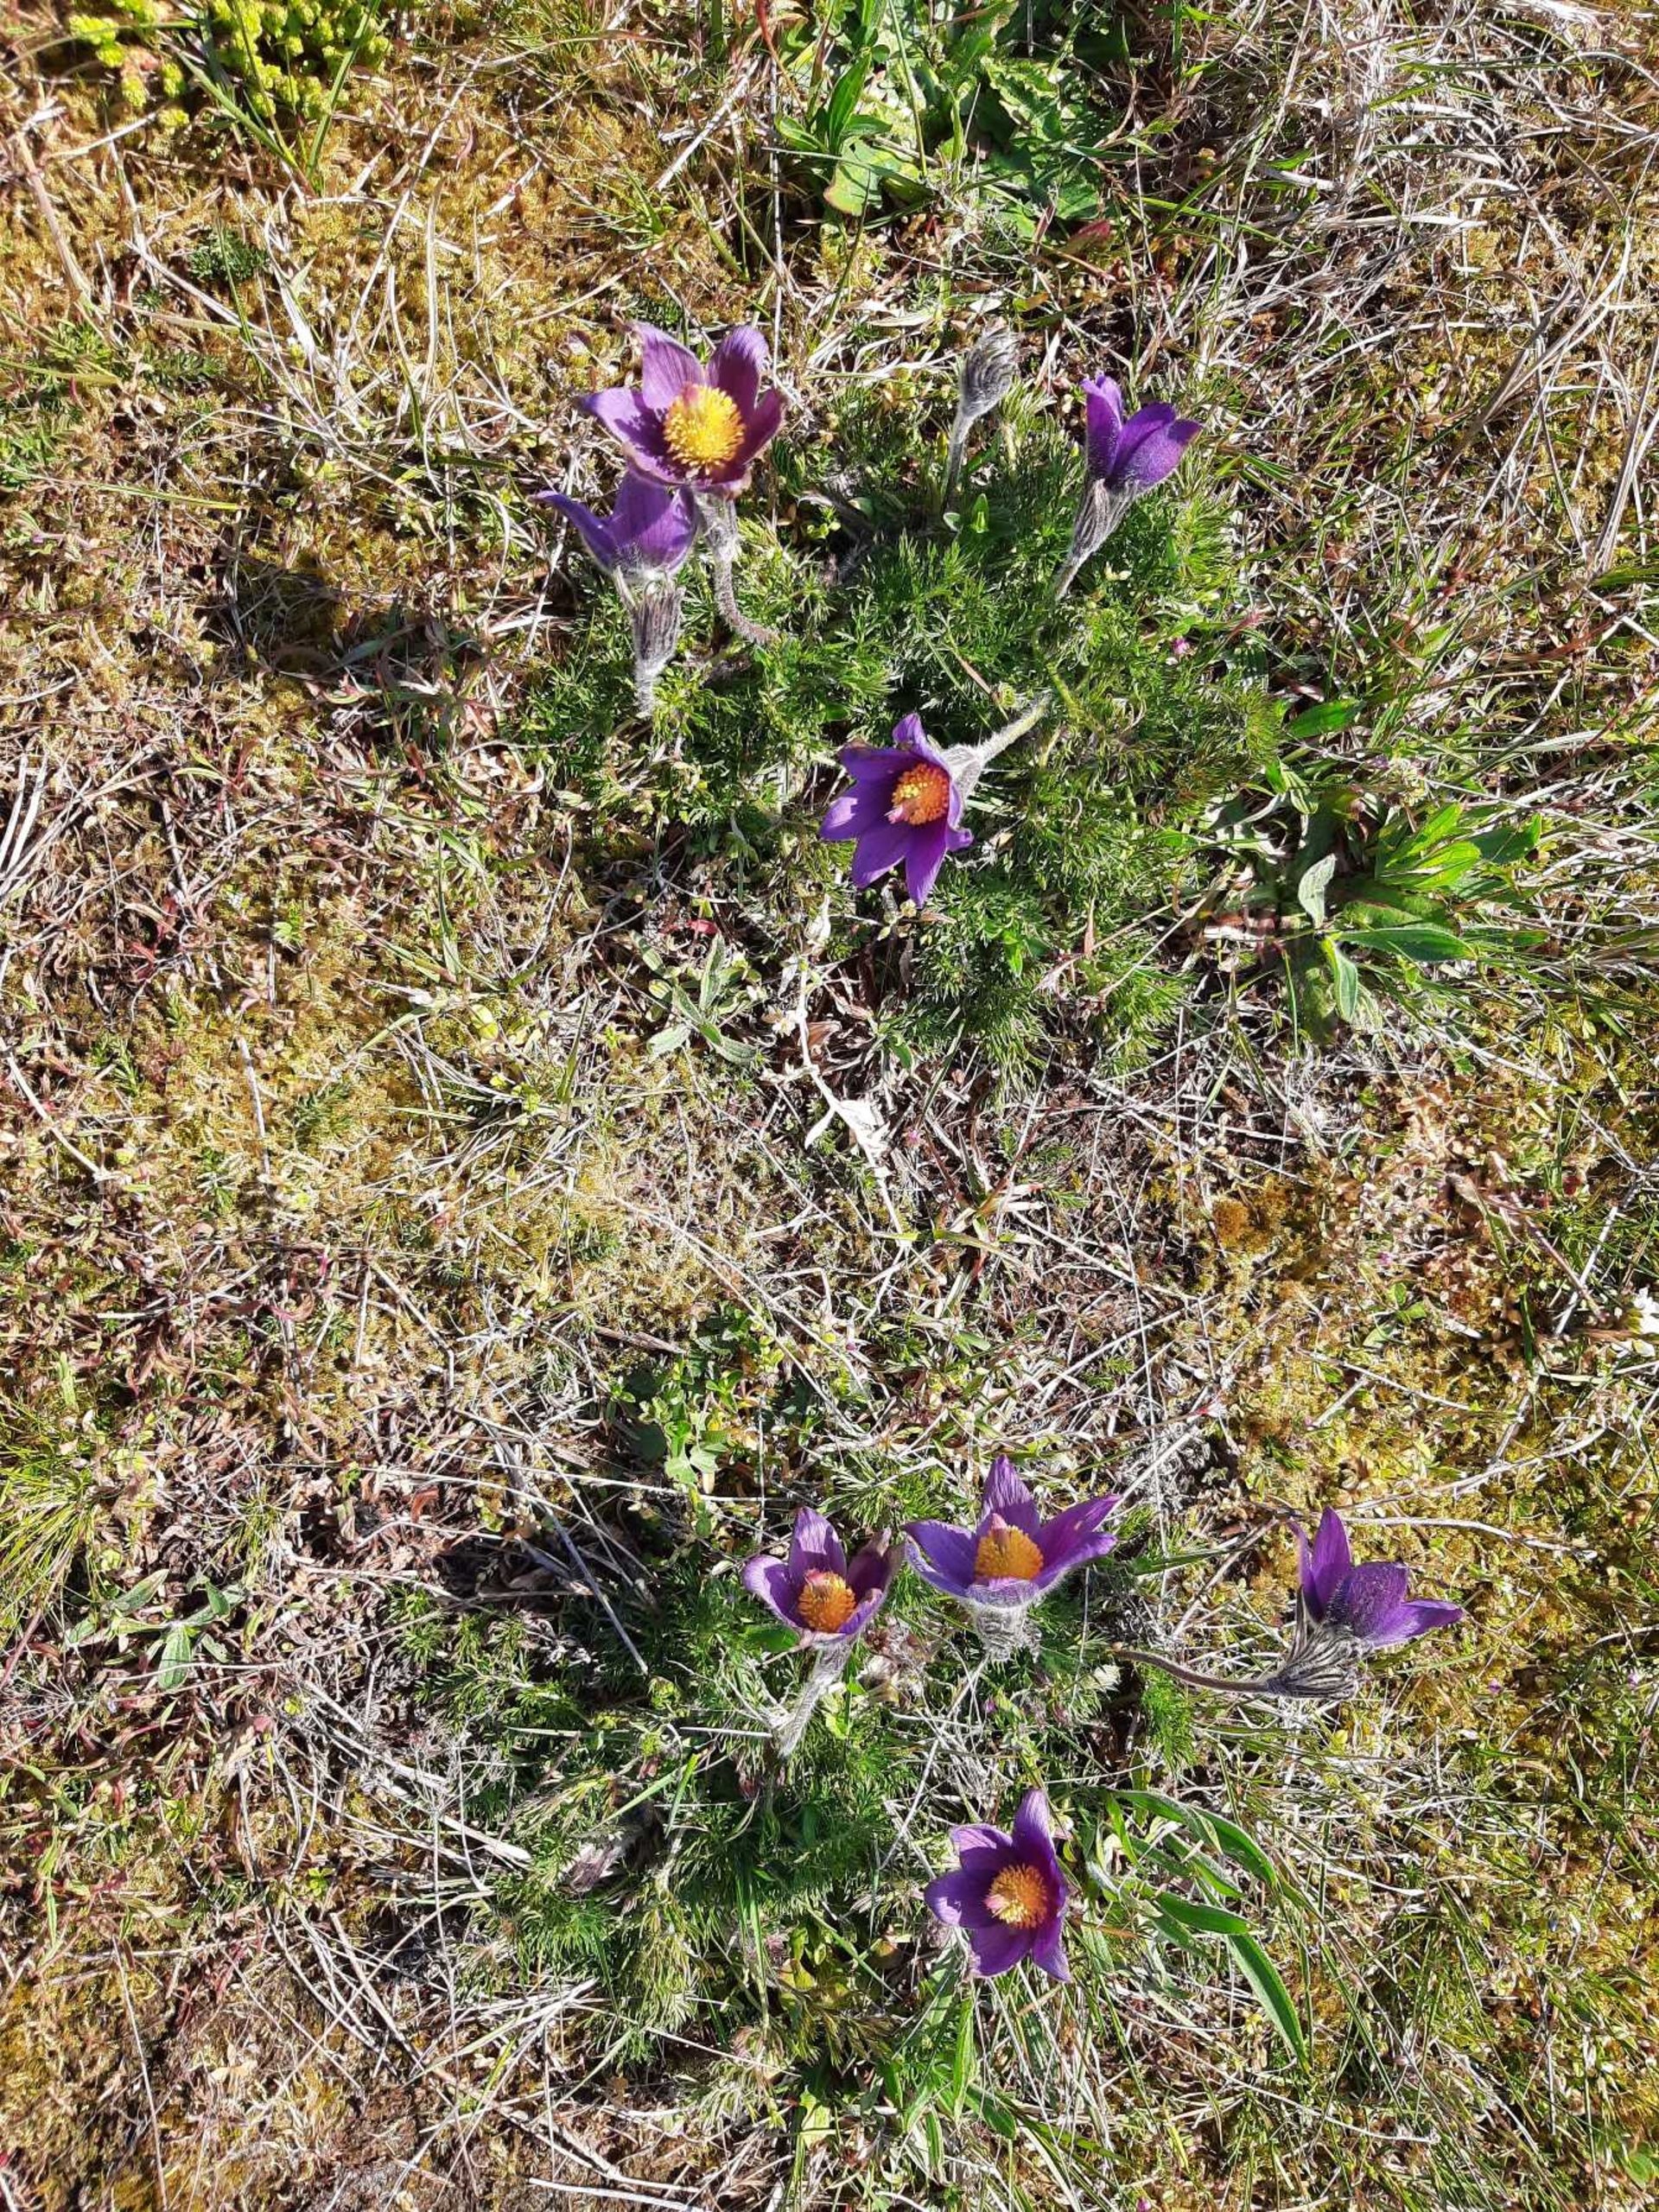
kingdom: Plantae
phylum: Tracheophyta
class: Magnoliopsida
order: Ranunculales
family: Ranunculaceae
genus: Pulsatilla
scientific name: Pulsatilla vulgaris
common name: Opret kobjælde
